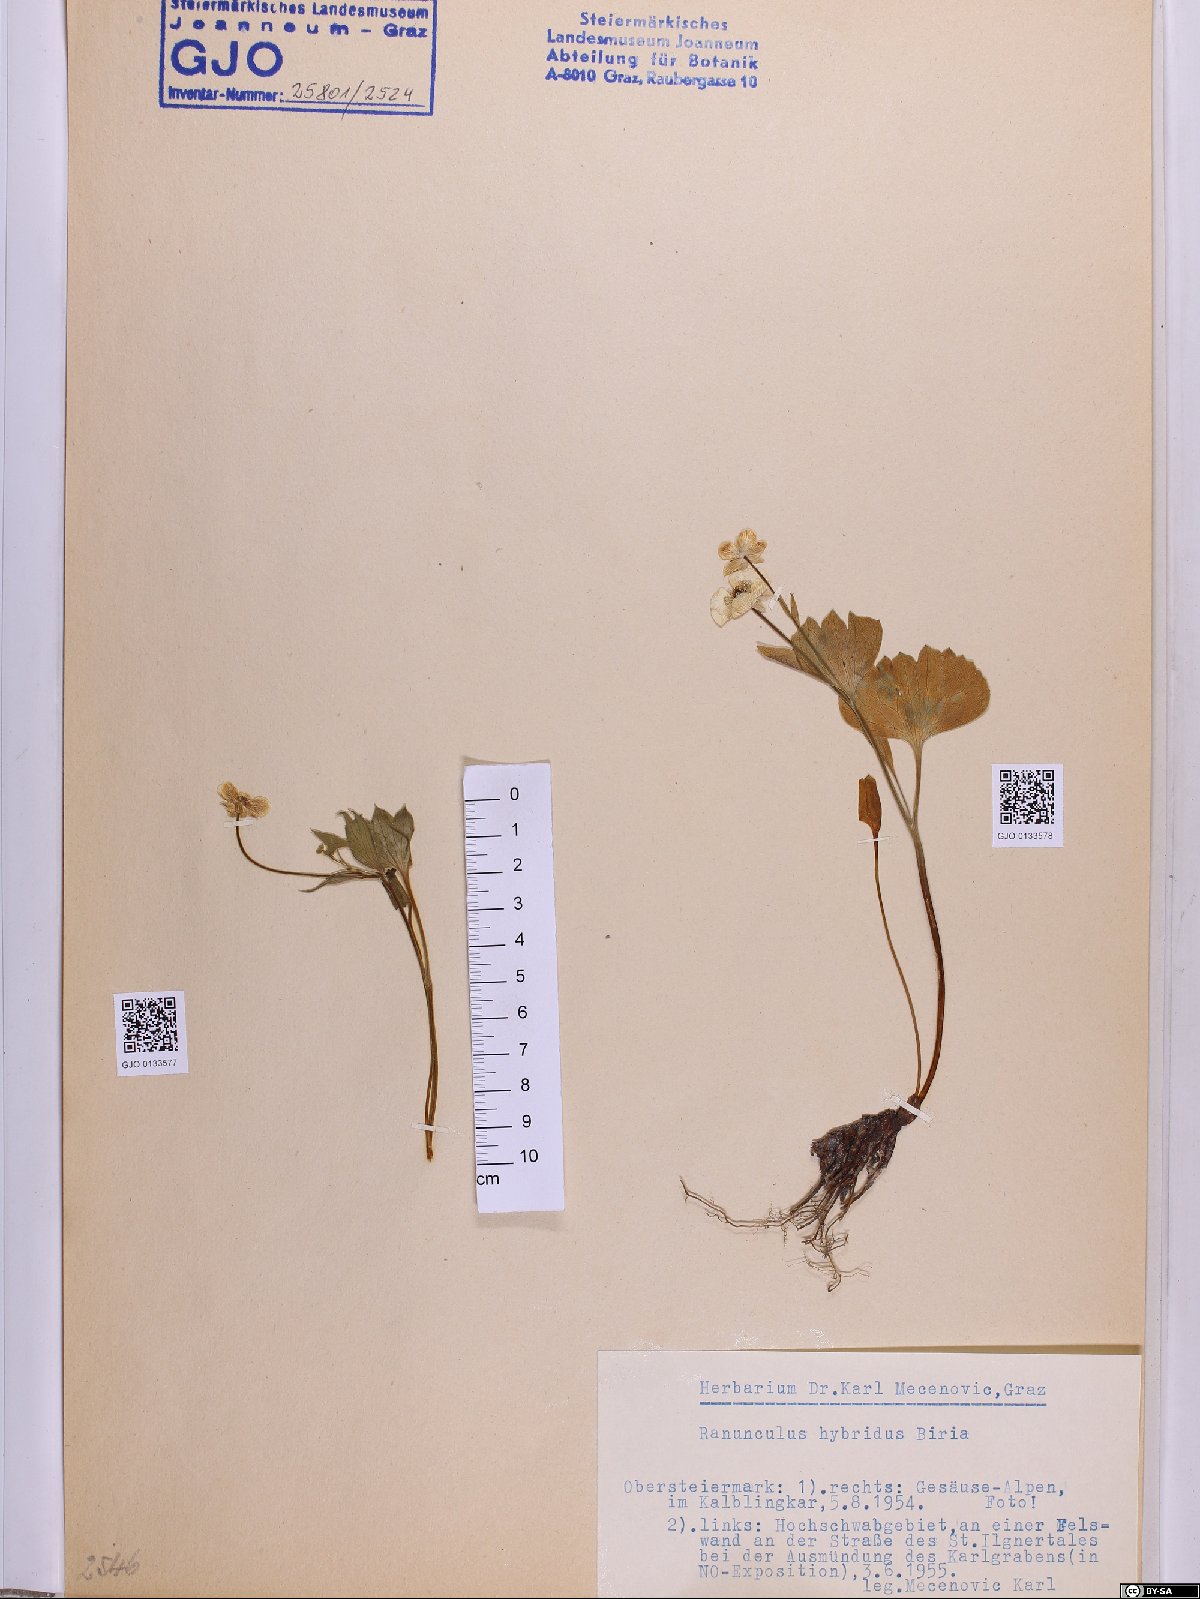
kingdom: Plantae
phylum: Tracheophyta
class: Magnoliopsida
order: Ranunculales
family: Ranunculaceae
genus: Ranunculus
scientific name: Ranunculus hybridus
